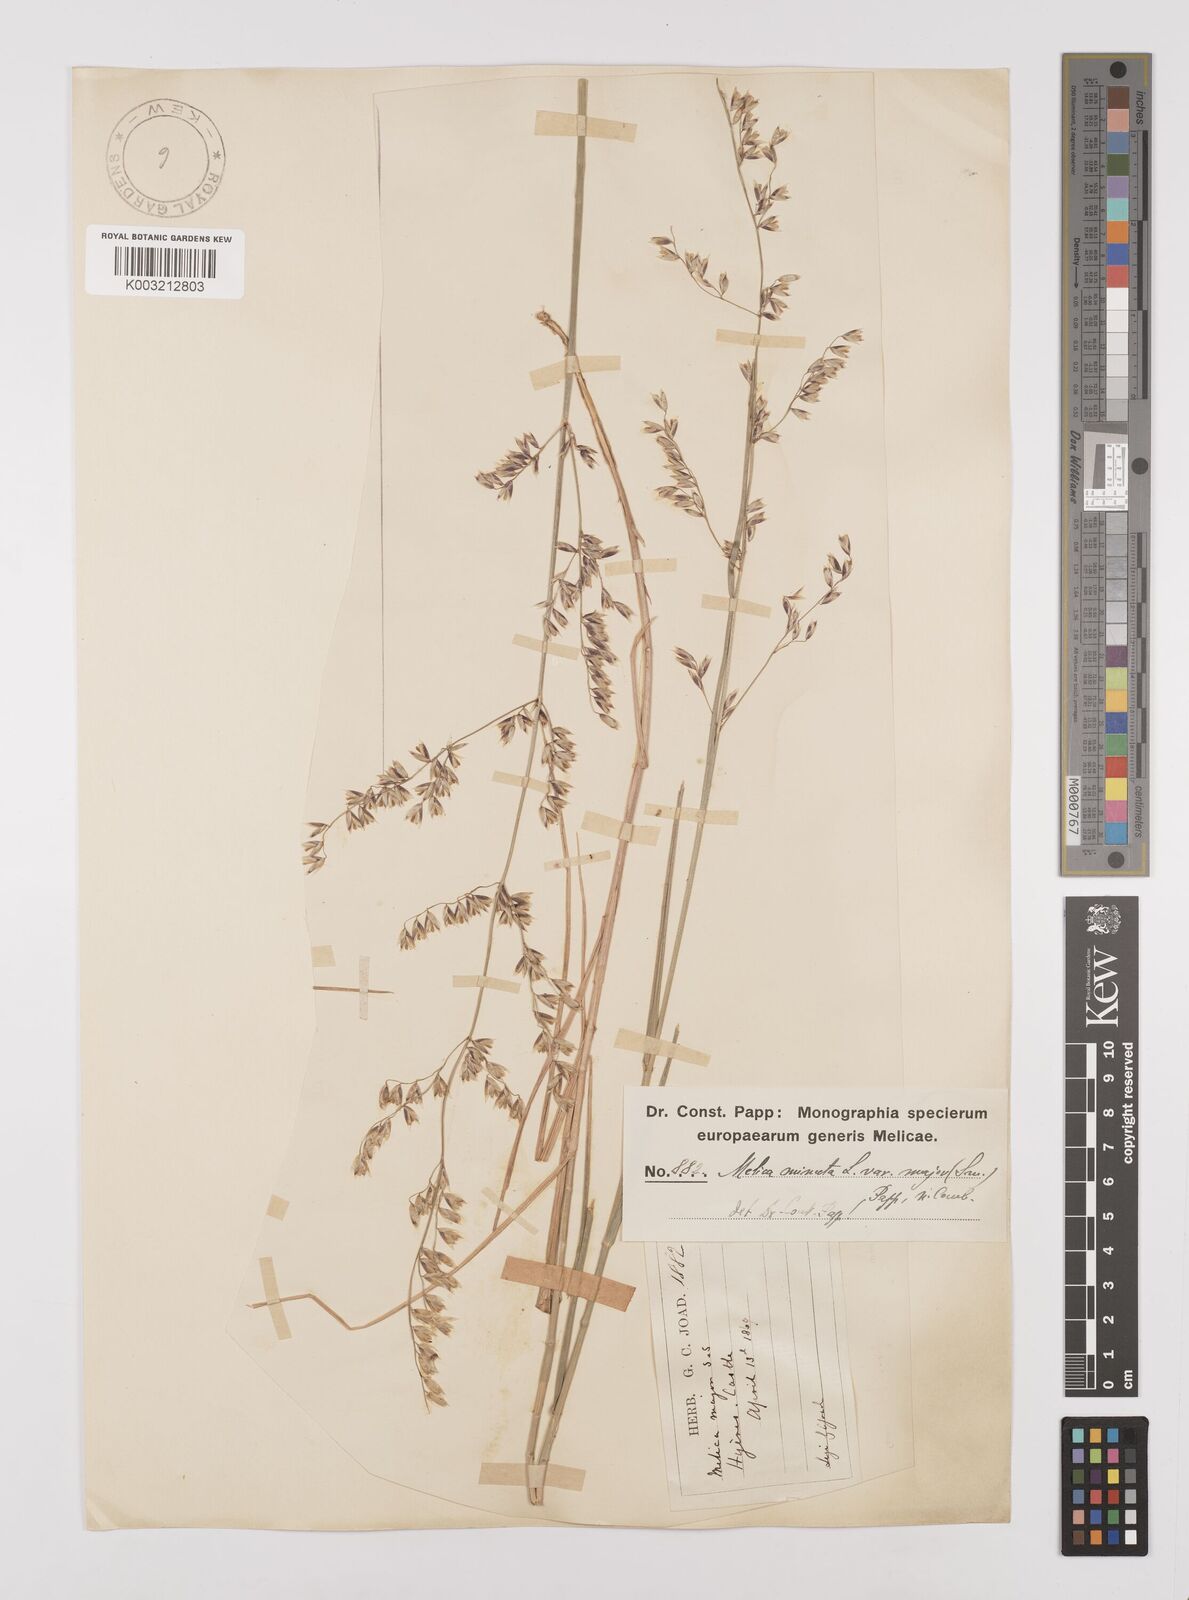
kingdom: Plantae
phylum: Tracheophyta
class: Liliopsida
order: Poales
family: Poaceae
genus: Melica
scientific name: Melica minuta
